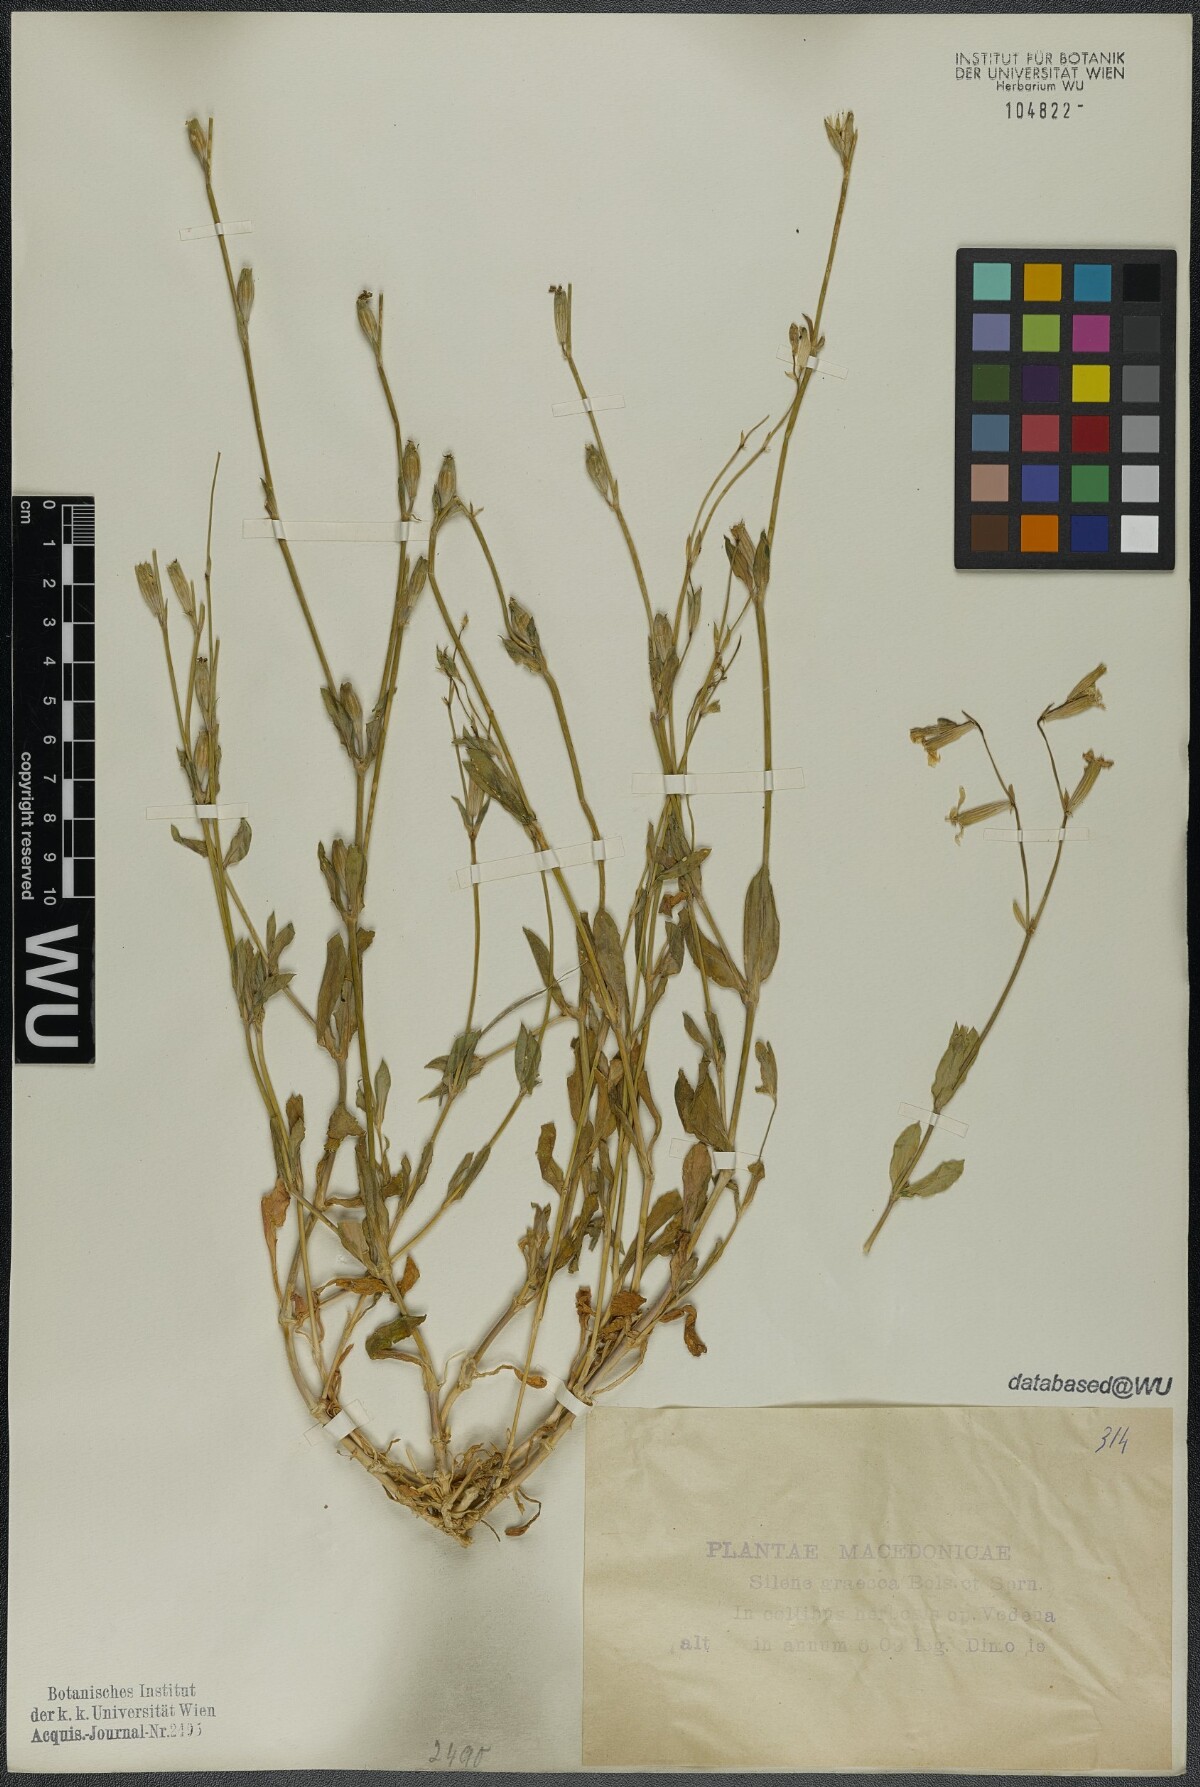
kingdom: Plantae
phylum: Tracheophyta
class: Magnoliopsida
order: Caryophyllales
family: Caryophyllaceae
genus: Silene
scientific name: Silene graeca
